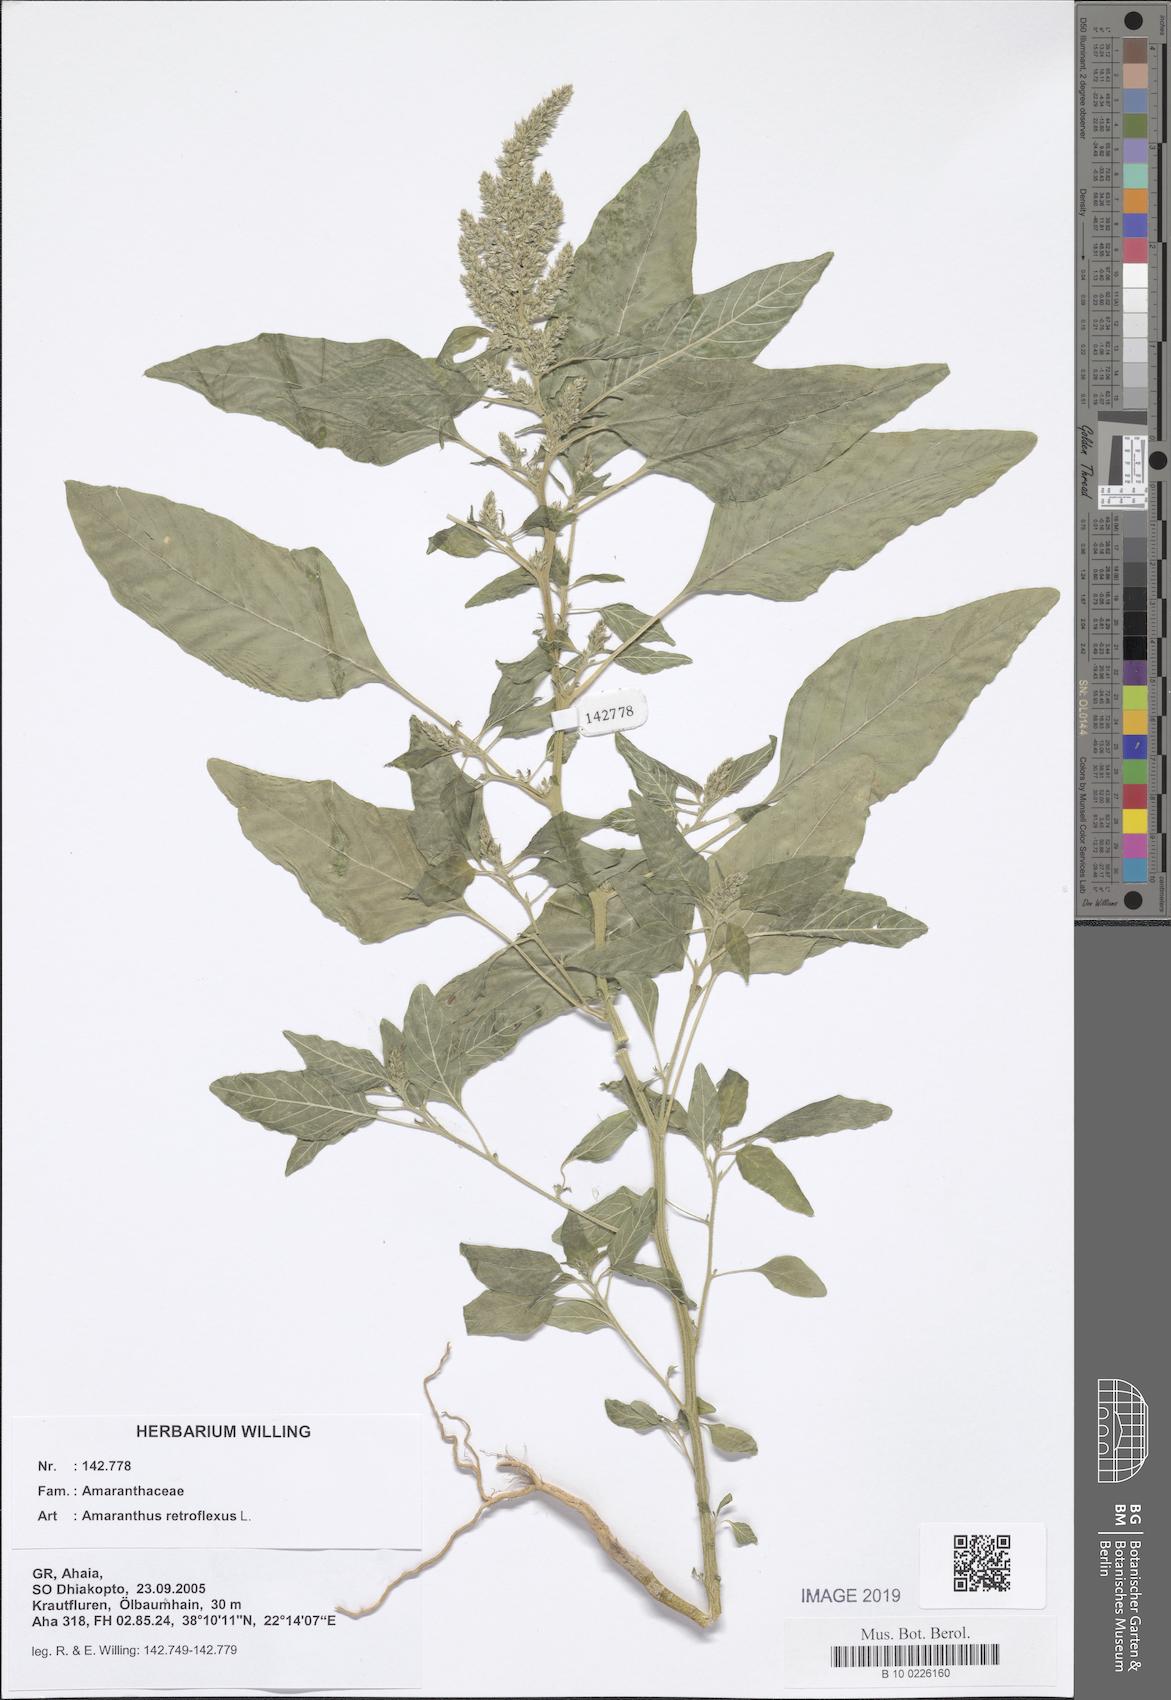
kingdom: Plantae
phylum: Tracheophyta
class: Magnoliopsida
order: Caryophyllales
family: Amaranthaceae
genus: Amaranthus
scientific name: Amaranthus retroflexus
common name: Redroot amaranth
